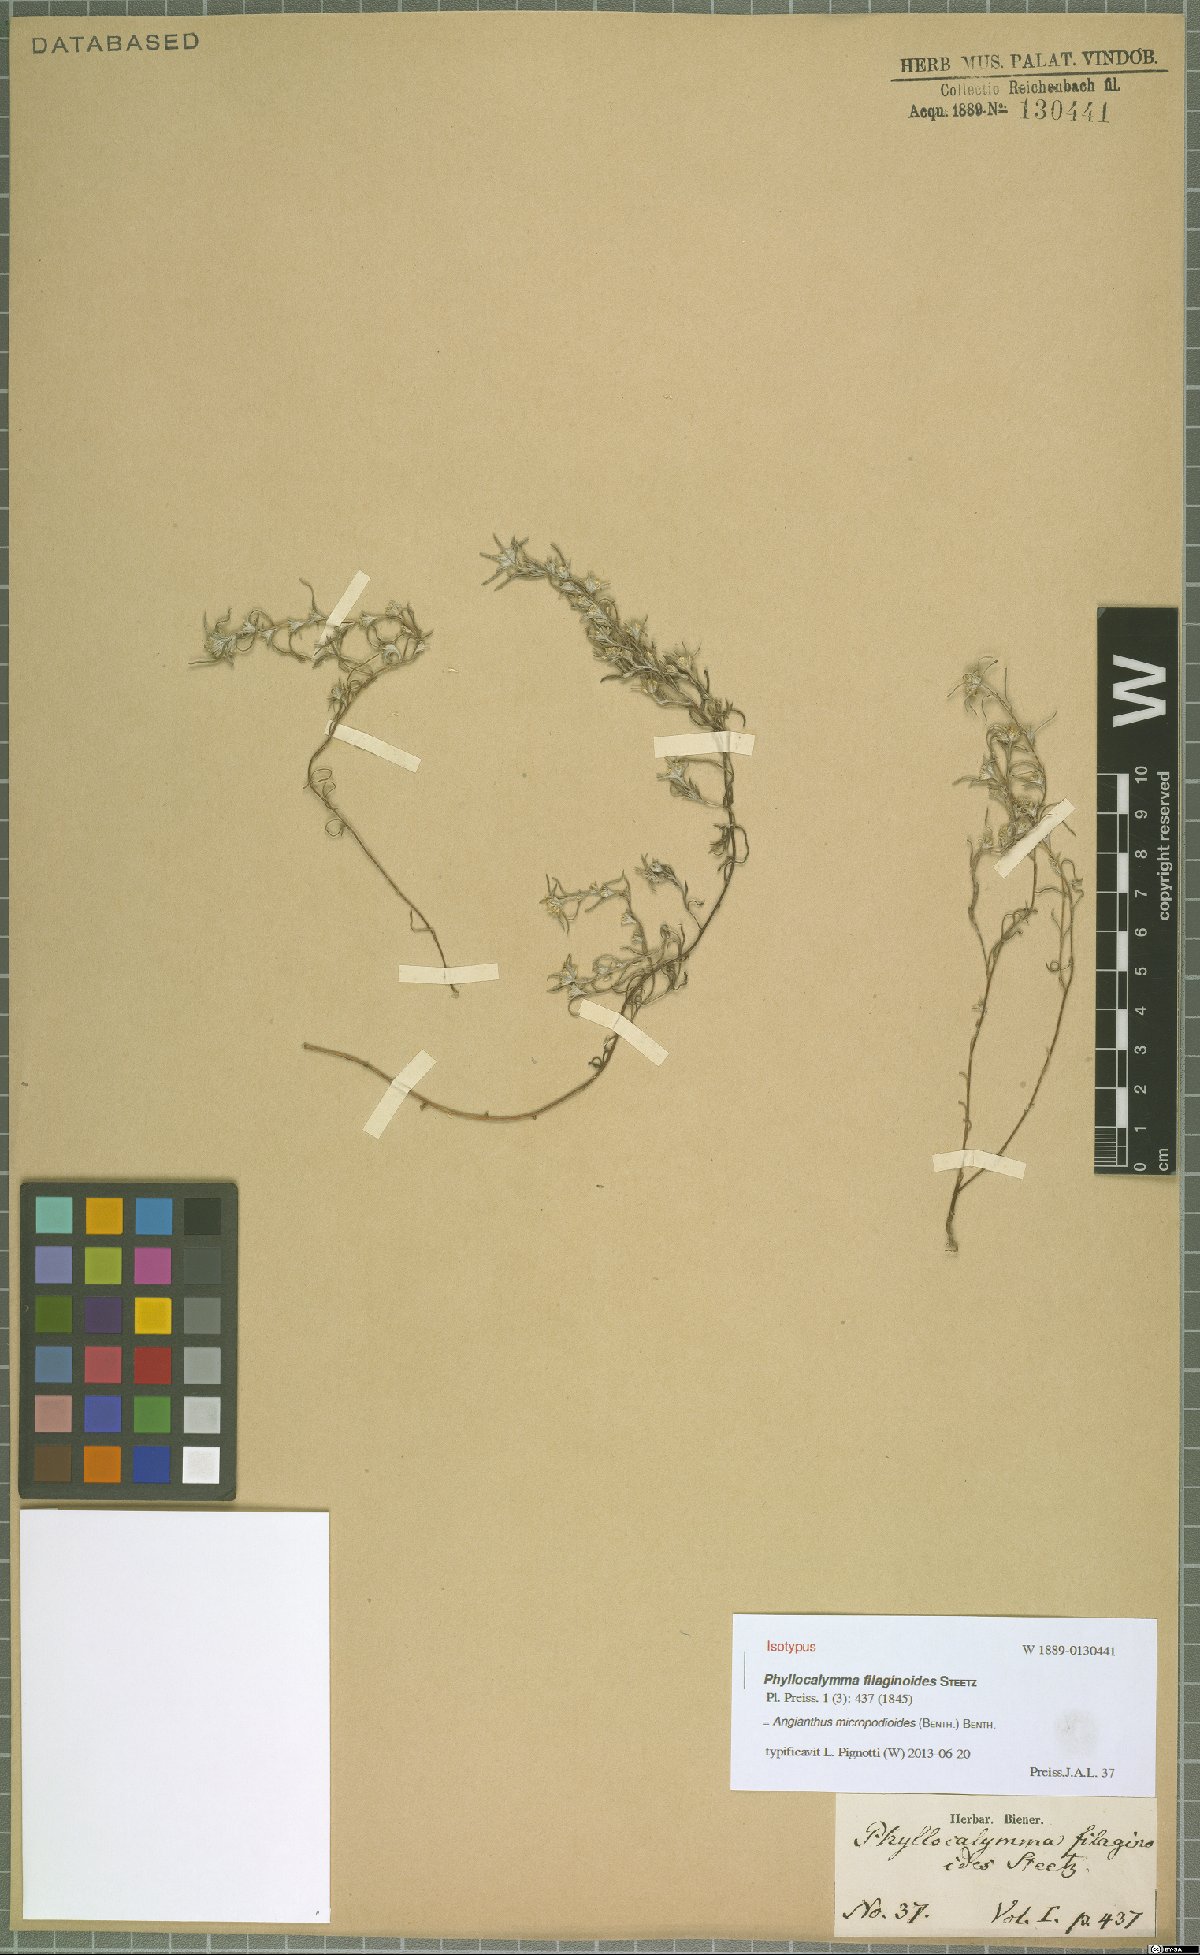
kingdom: Plantae
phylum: Tracheophyta
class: Magnoliopsida
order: Asterales
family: Asteraceae
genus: Angianthus
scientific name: Angianthus micropodioides
